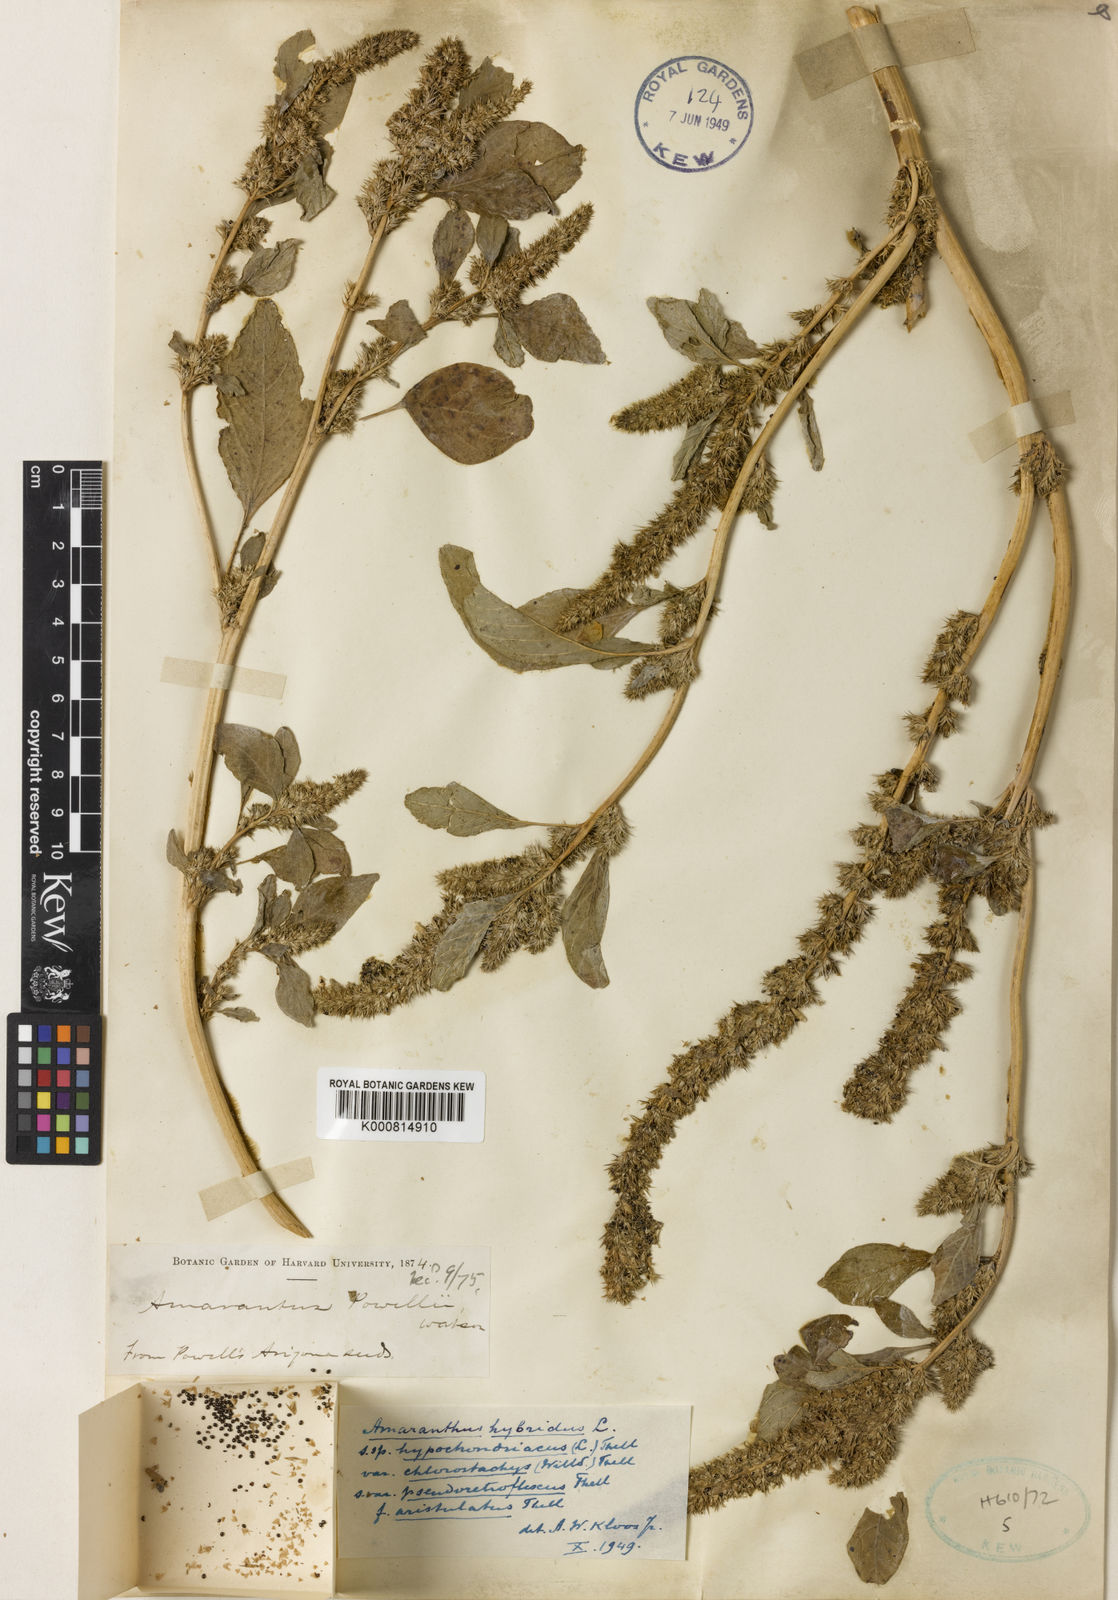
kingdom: Plantae
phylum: Tracheophyta
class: Magnoliopsida
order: Caryophyllales
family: Amaranthaceae
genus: Amaranthus
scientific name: Amaranthus powellii
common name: Powell's amaranth
